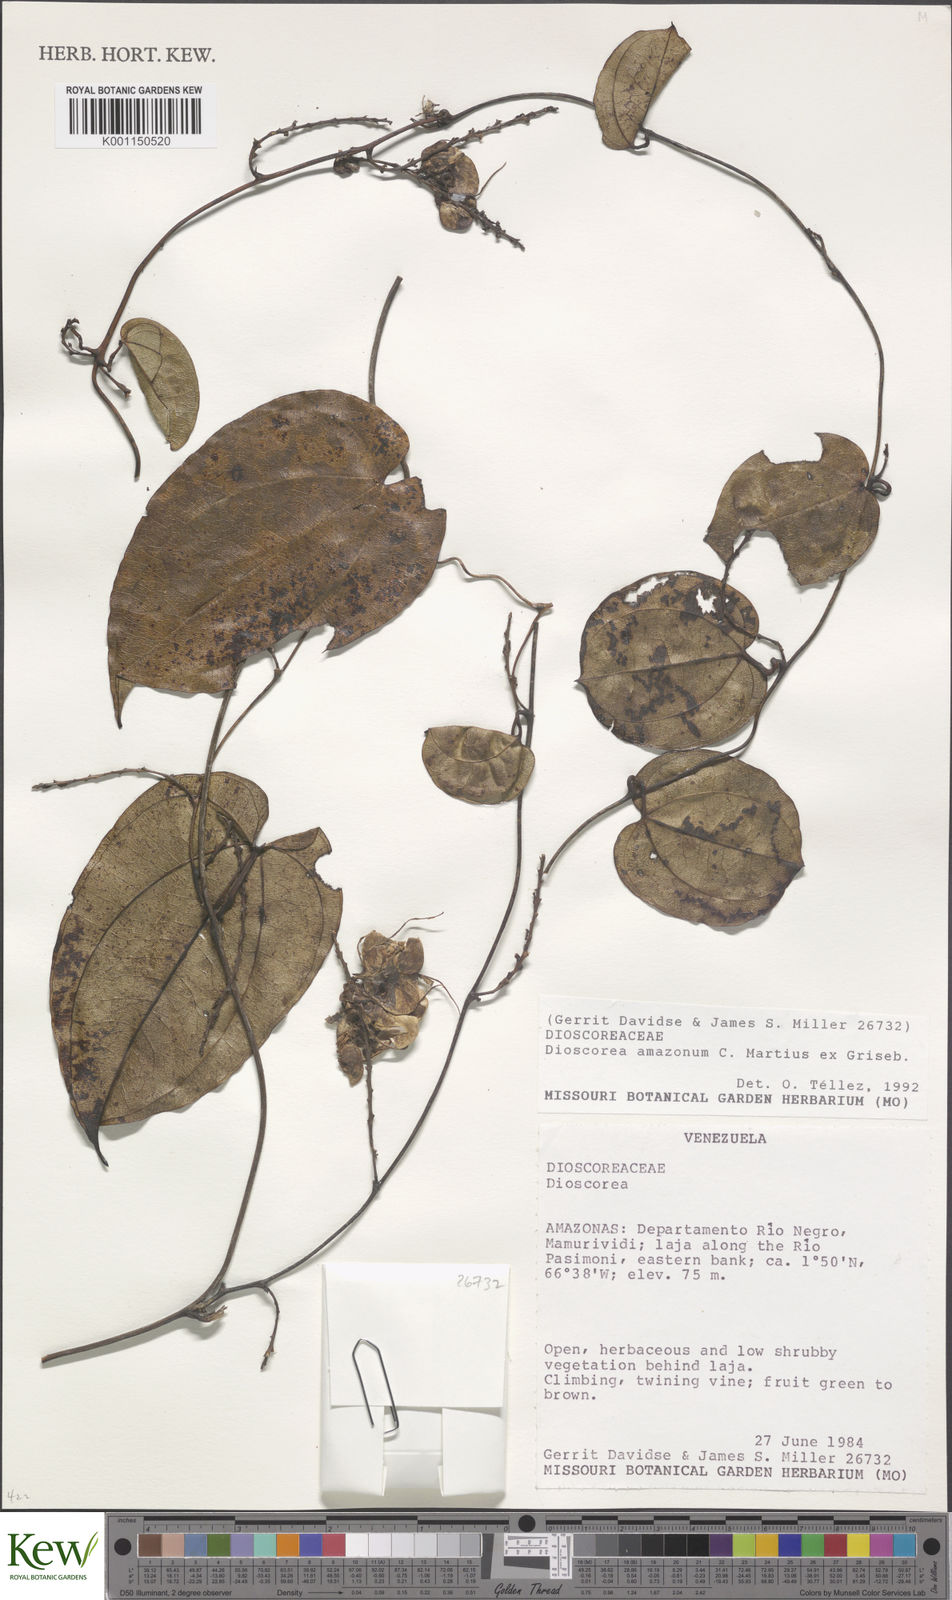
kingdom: Plantae
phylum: Tracheophyta
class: Liliopsida
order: Dioscoreales
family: Dioscoreaceae
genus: Dioscorea
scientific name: Dioscorea amazonum
